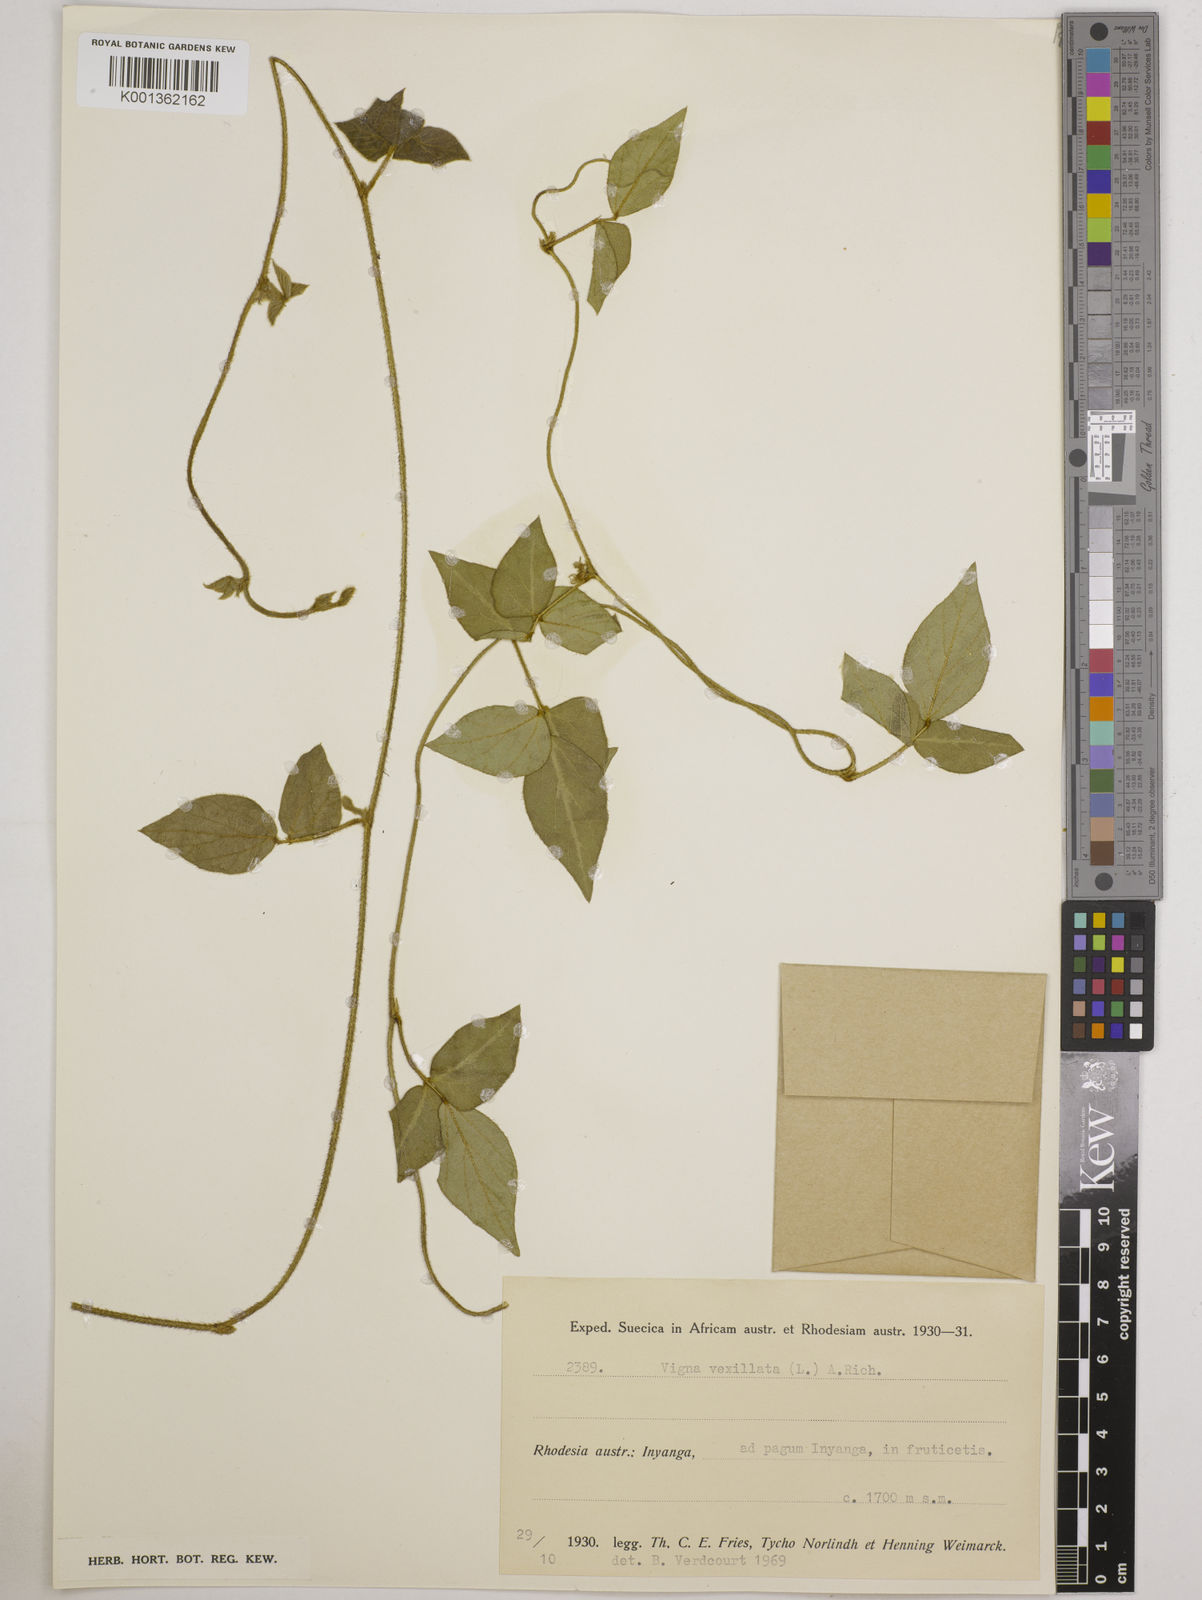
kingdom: Plantae
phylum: Tracheophyta
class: Magnoliopsida
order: Fabales
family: Fabaceae
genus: Vigna
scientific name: Vigna vexillata
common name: Zombi pea
